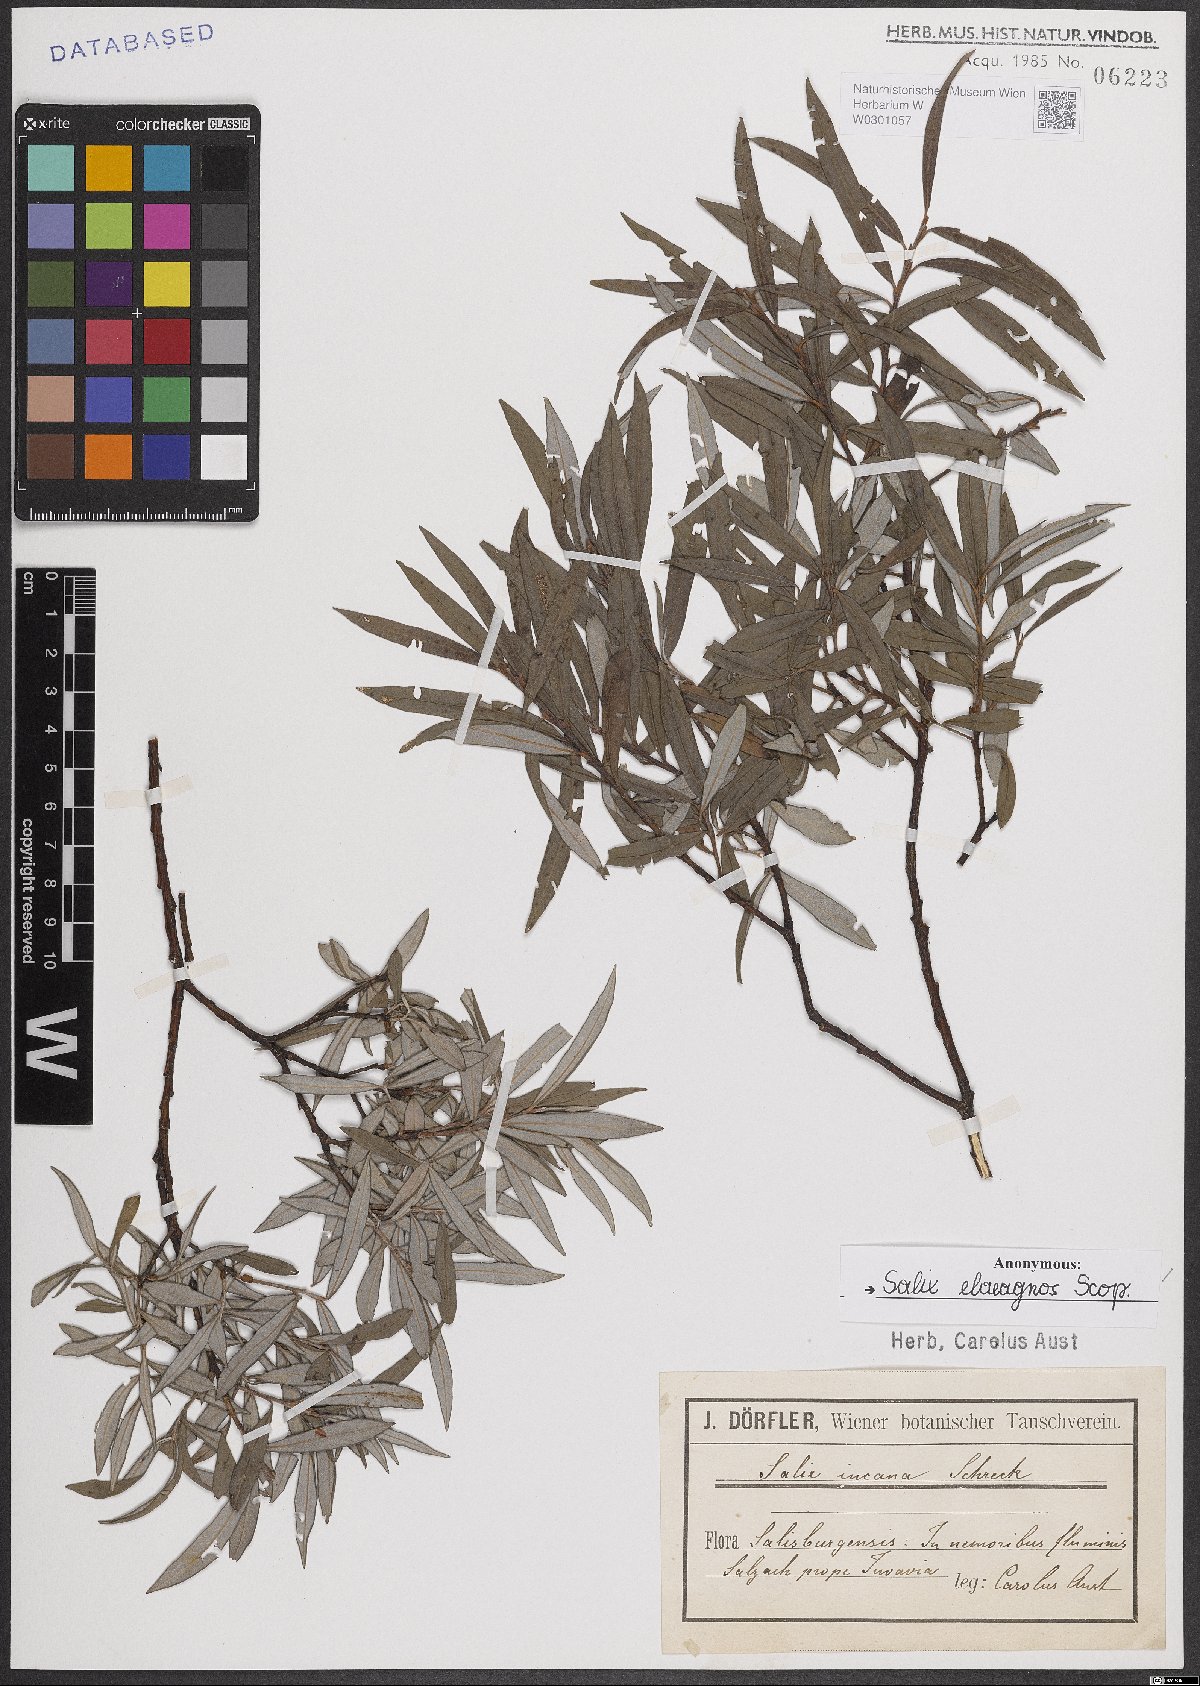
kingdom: Plantae
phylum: Tracheophyta
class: Magnoliopsida
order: Malpighiales
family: Salicaceae
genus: Salix
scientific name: Salix eleagnos
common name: Elaeagnus willow
